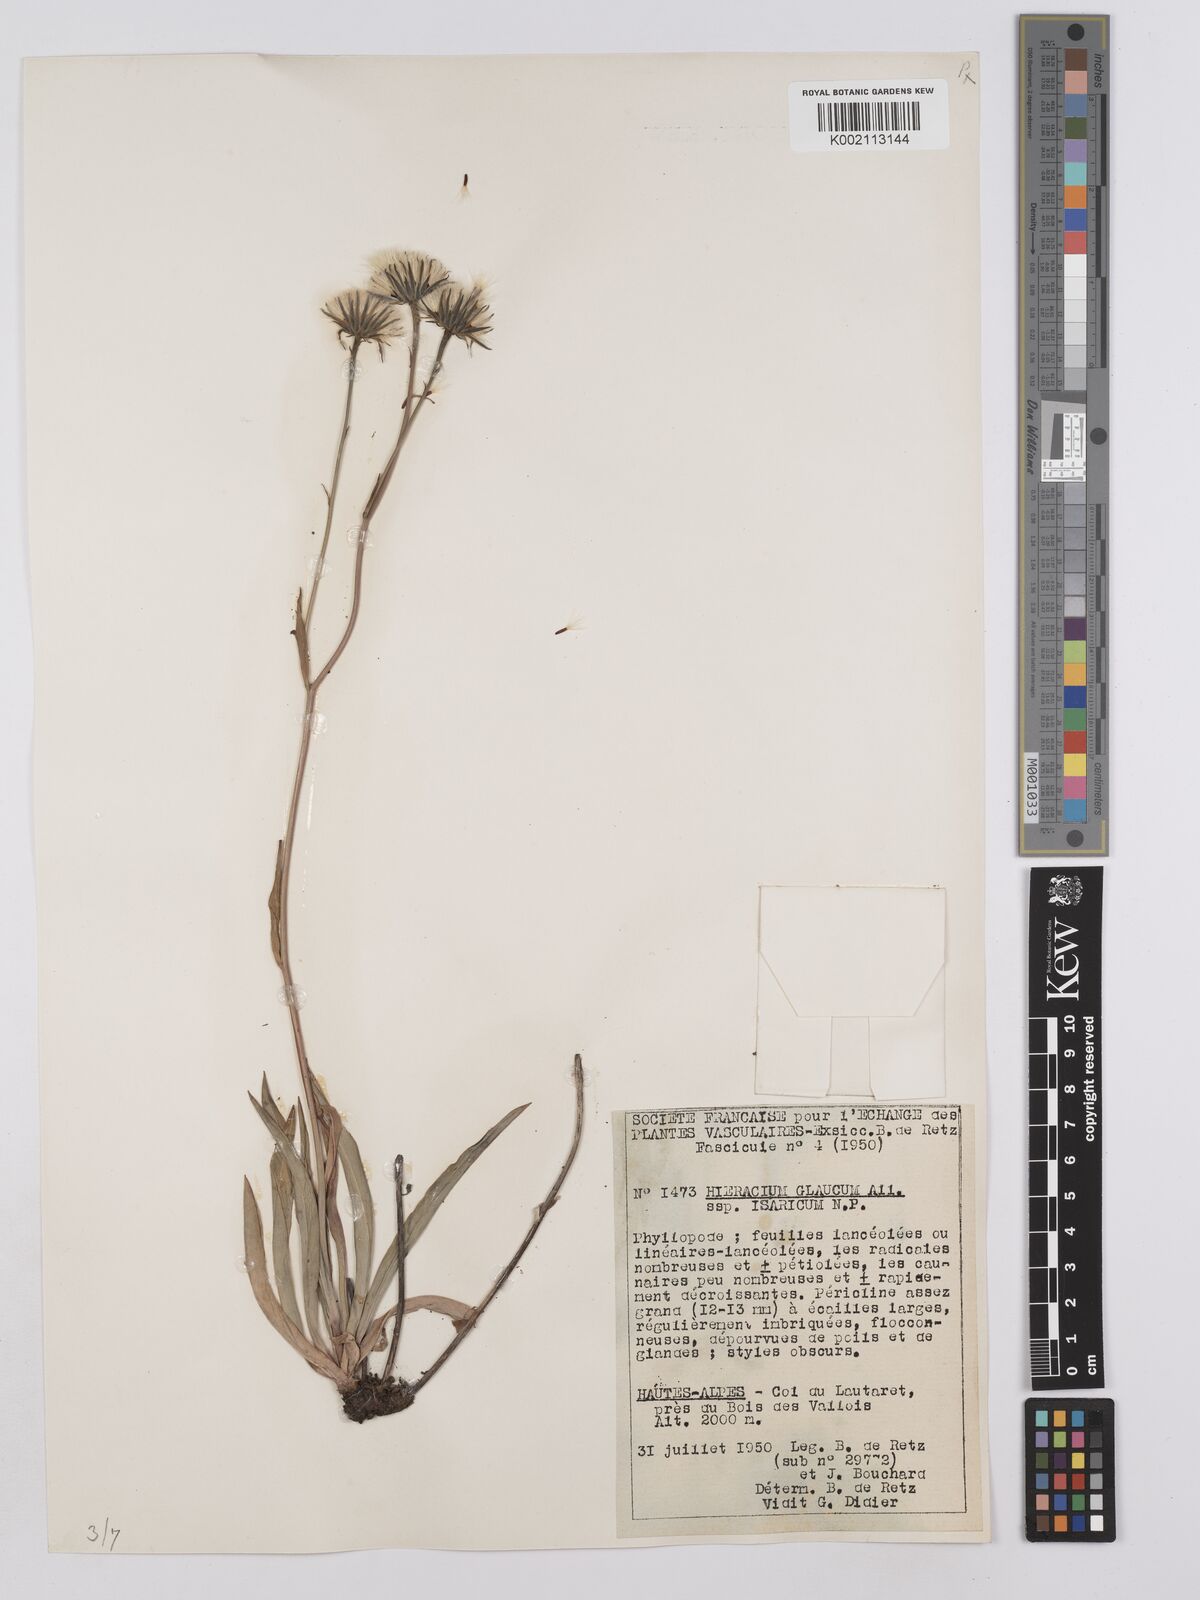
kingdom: Plantae
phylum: Tracheophyta
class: Magnoliopsida
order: Asterales
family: Asteraceae
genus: Hieracium
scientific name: Hieracium glaucum
